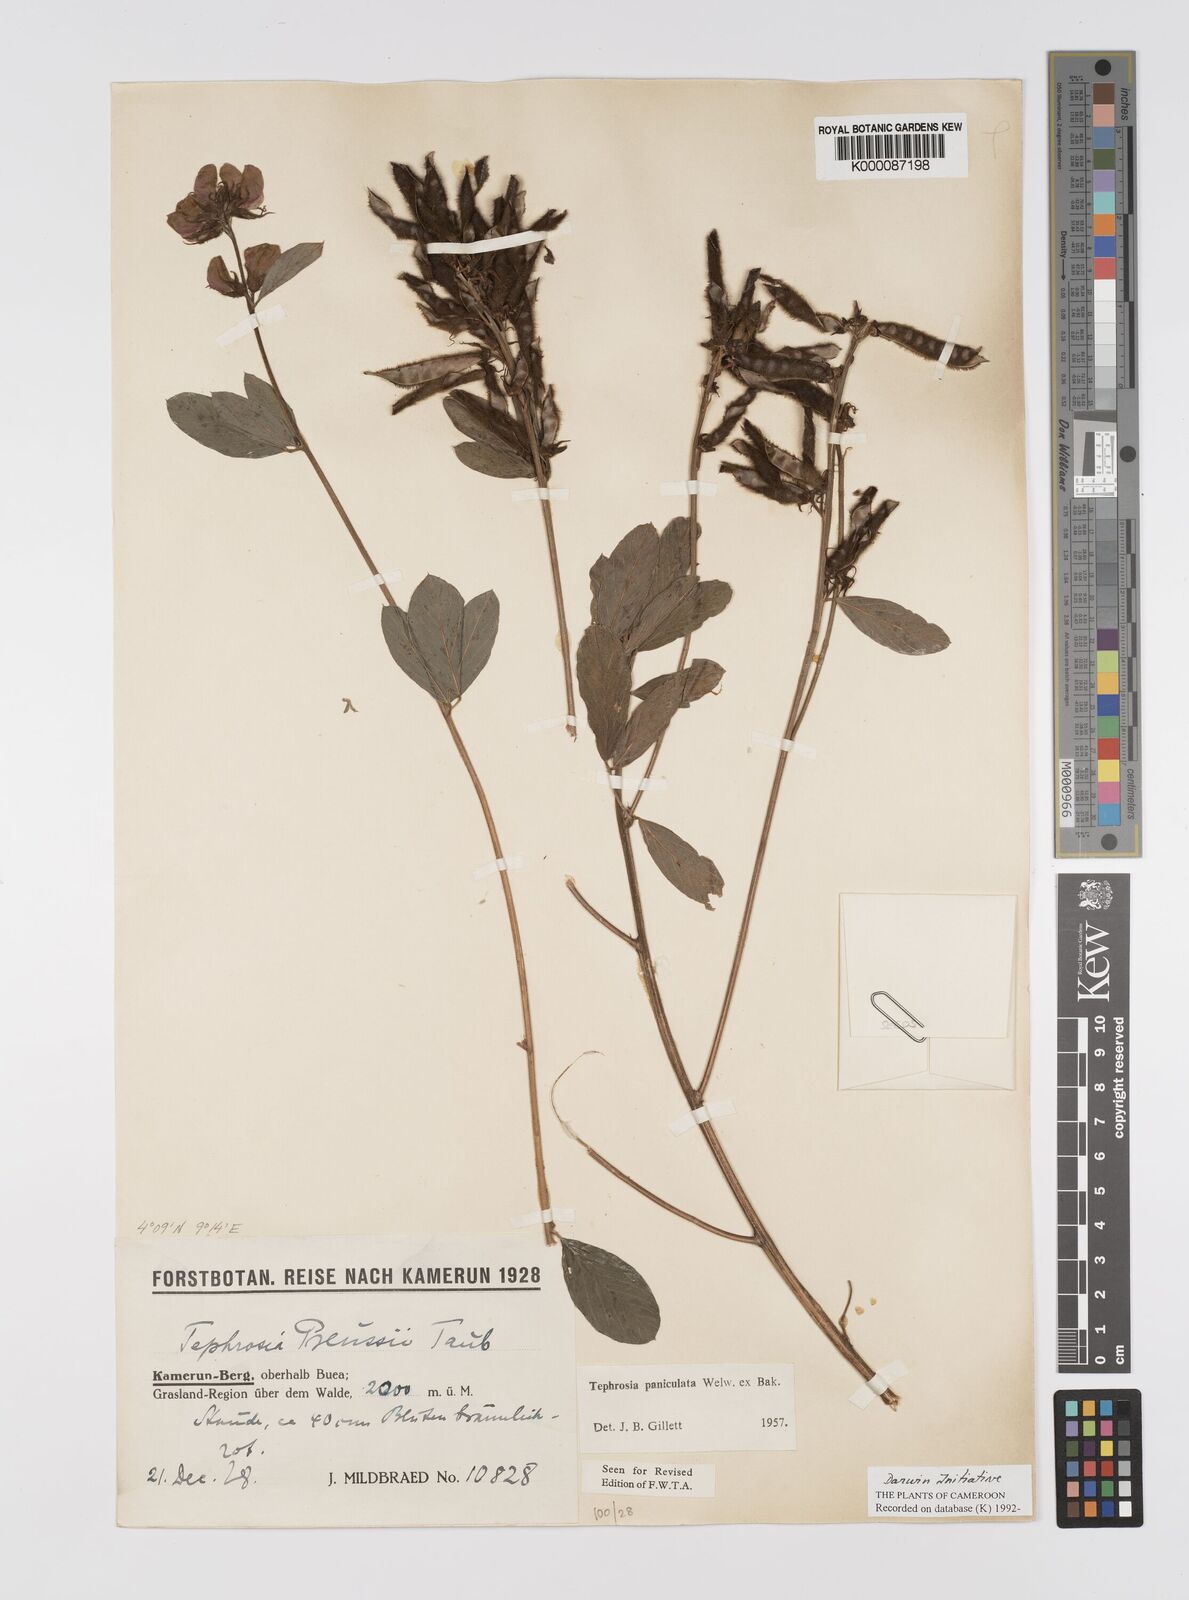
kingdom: Plantae
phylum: Tracheophyta
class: Magnoliopsida
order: Fabales
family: Fabaceae
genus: Tephrosia
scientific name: Tephrosia paniculata
